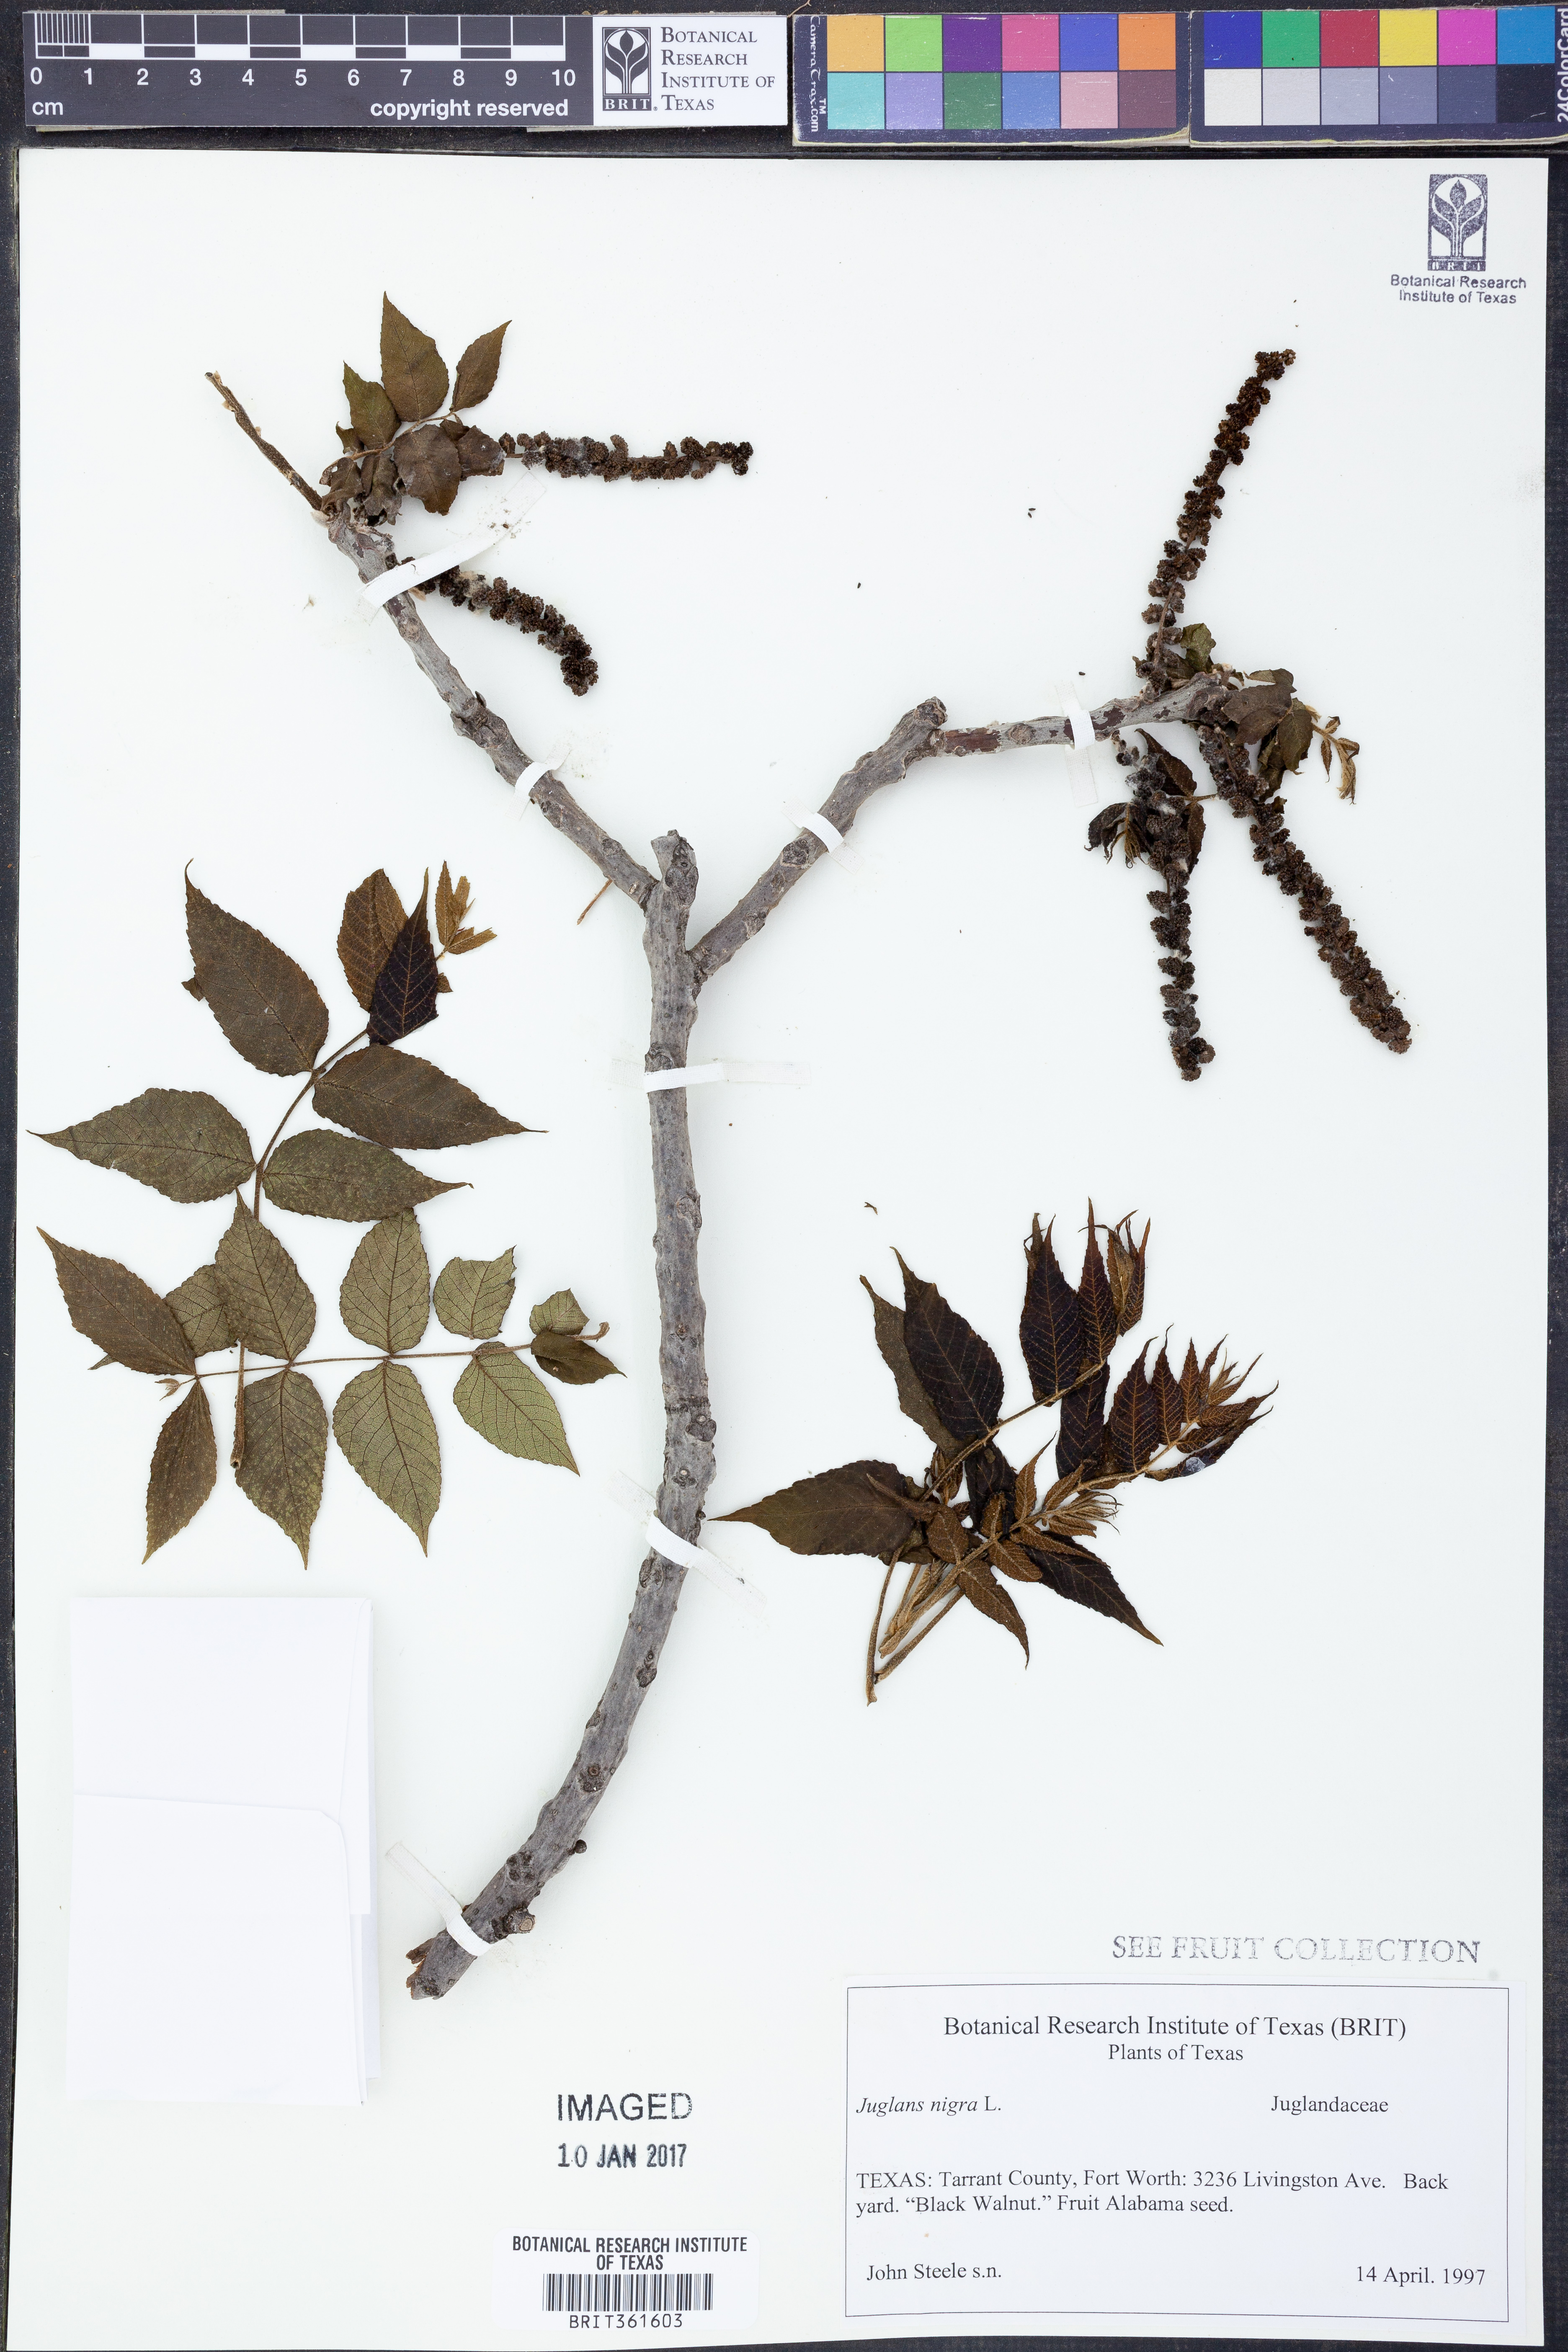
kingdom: Plantae
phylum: Tracheophyta
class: Magnoliopsida
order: Fagales
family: Juglandaceae
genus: Juglans
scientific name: Juglans nigra
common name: Black walnut
